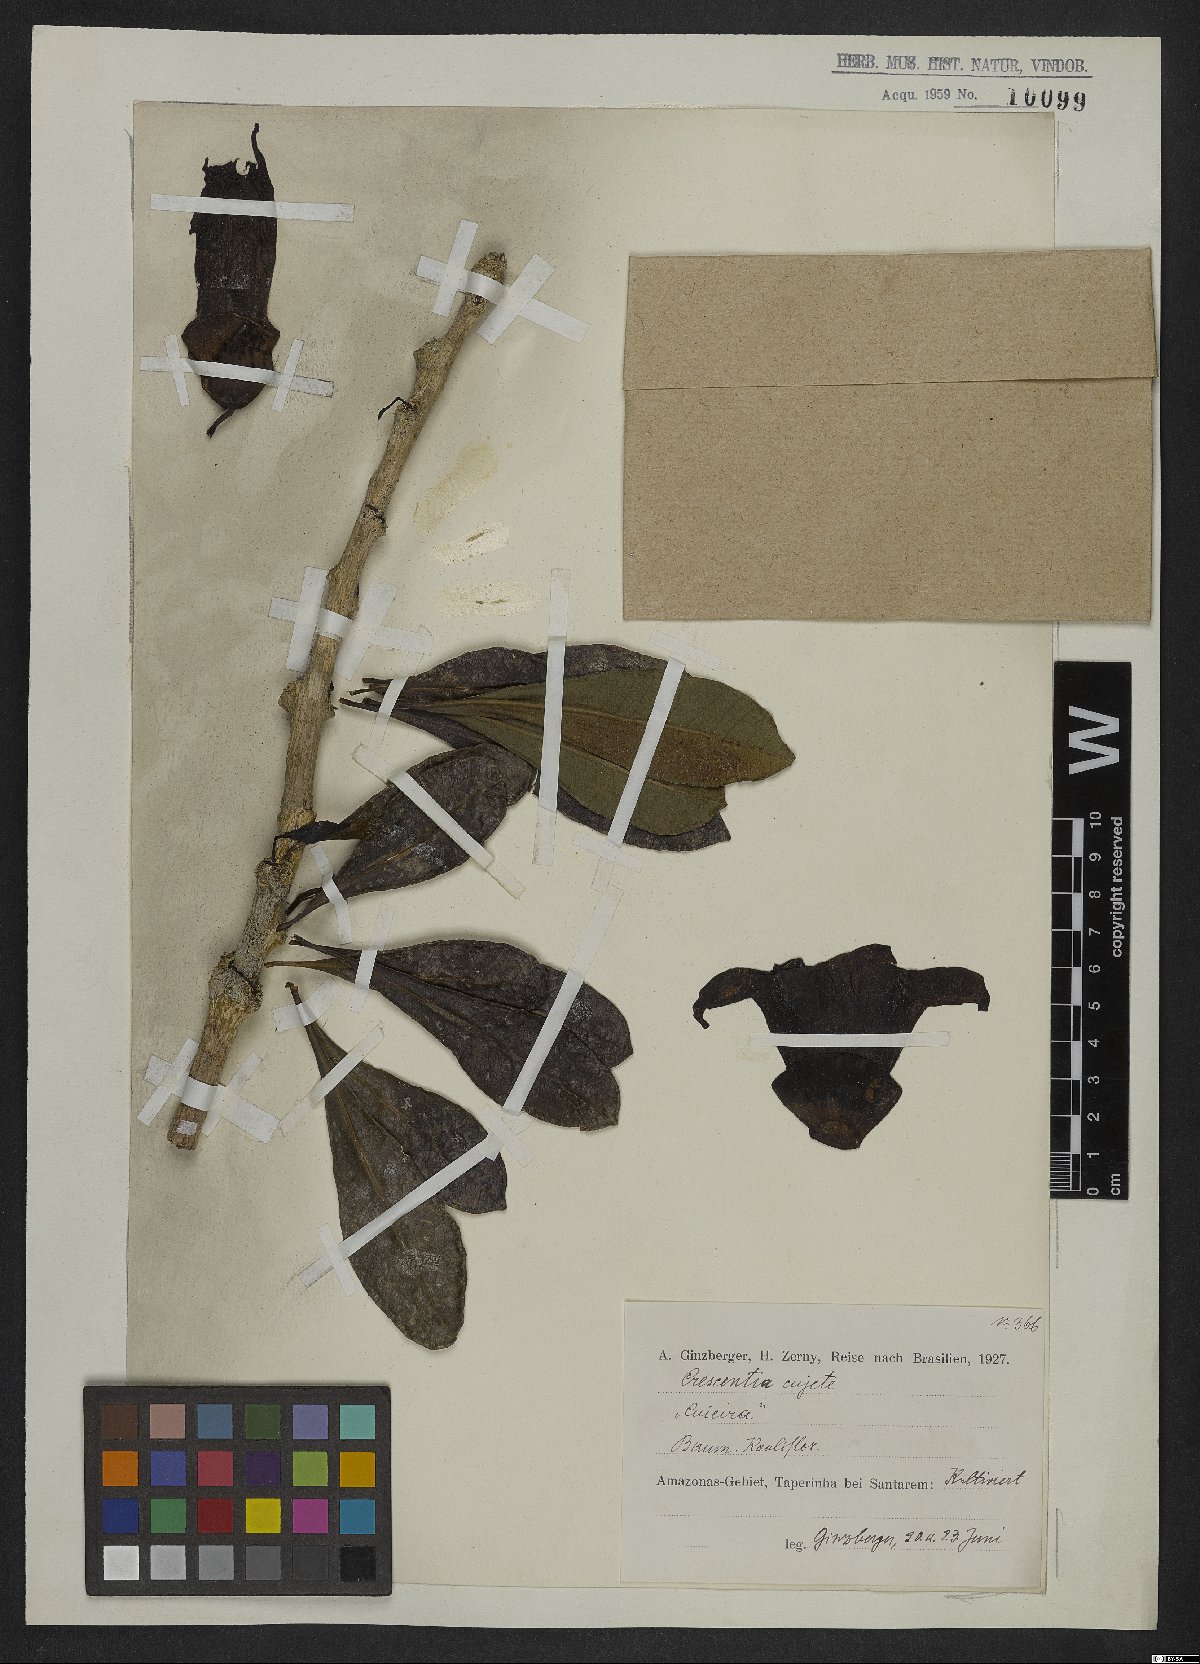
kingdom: Plantae
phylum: Tracheophyta
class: Magnoliopsida
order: Lamiales
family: Bignoniaceae
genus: Crescentia
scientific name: Crescentia cujete
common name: Calabash
